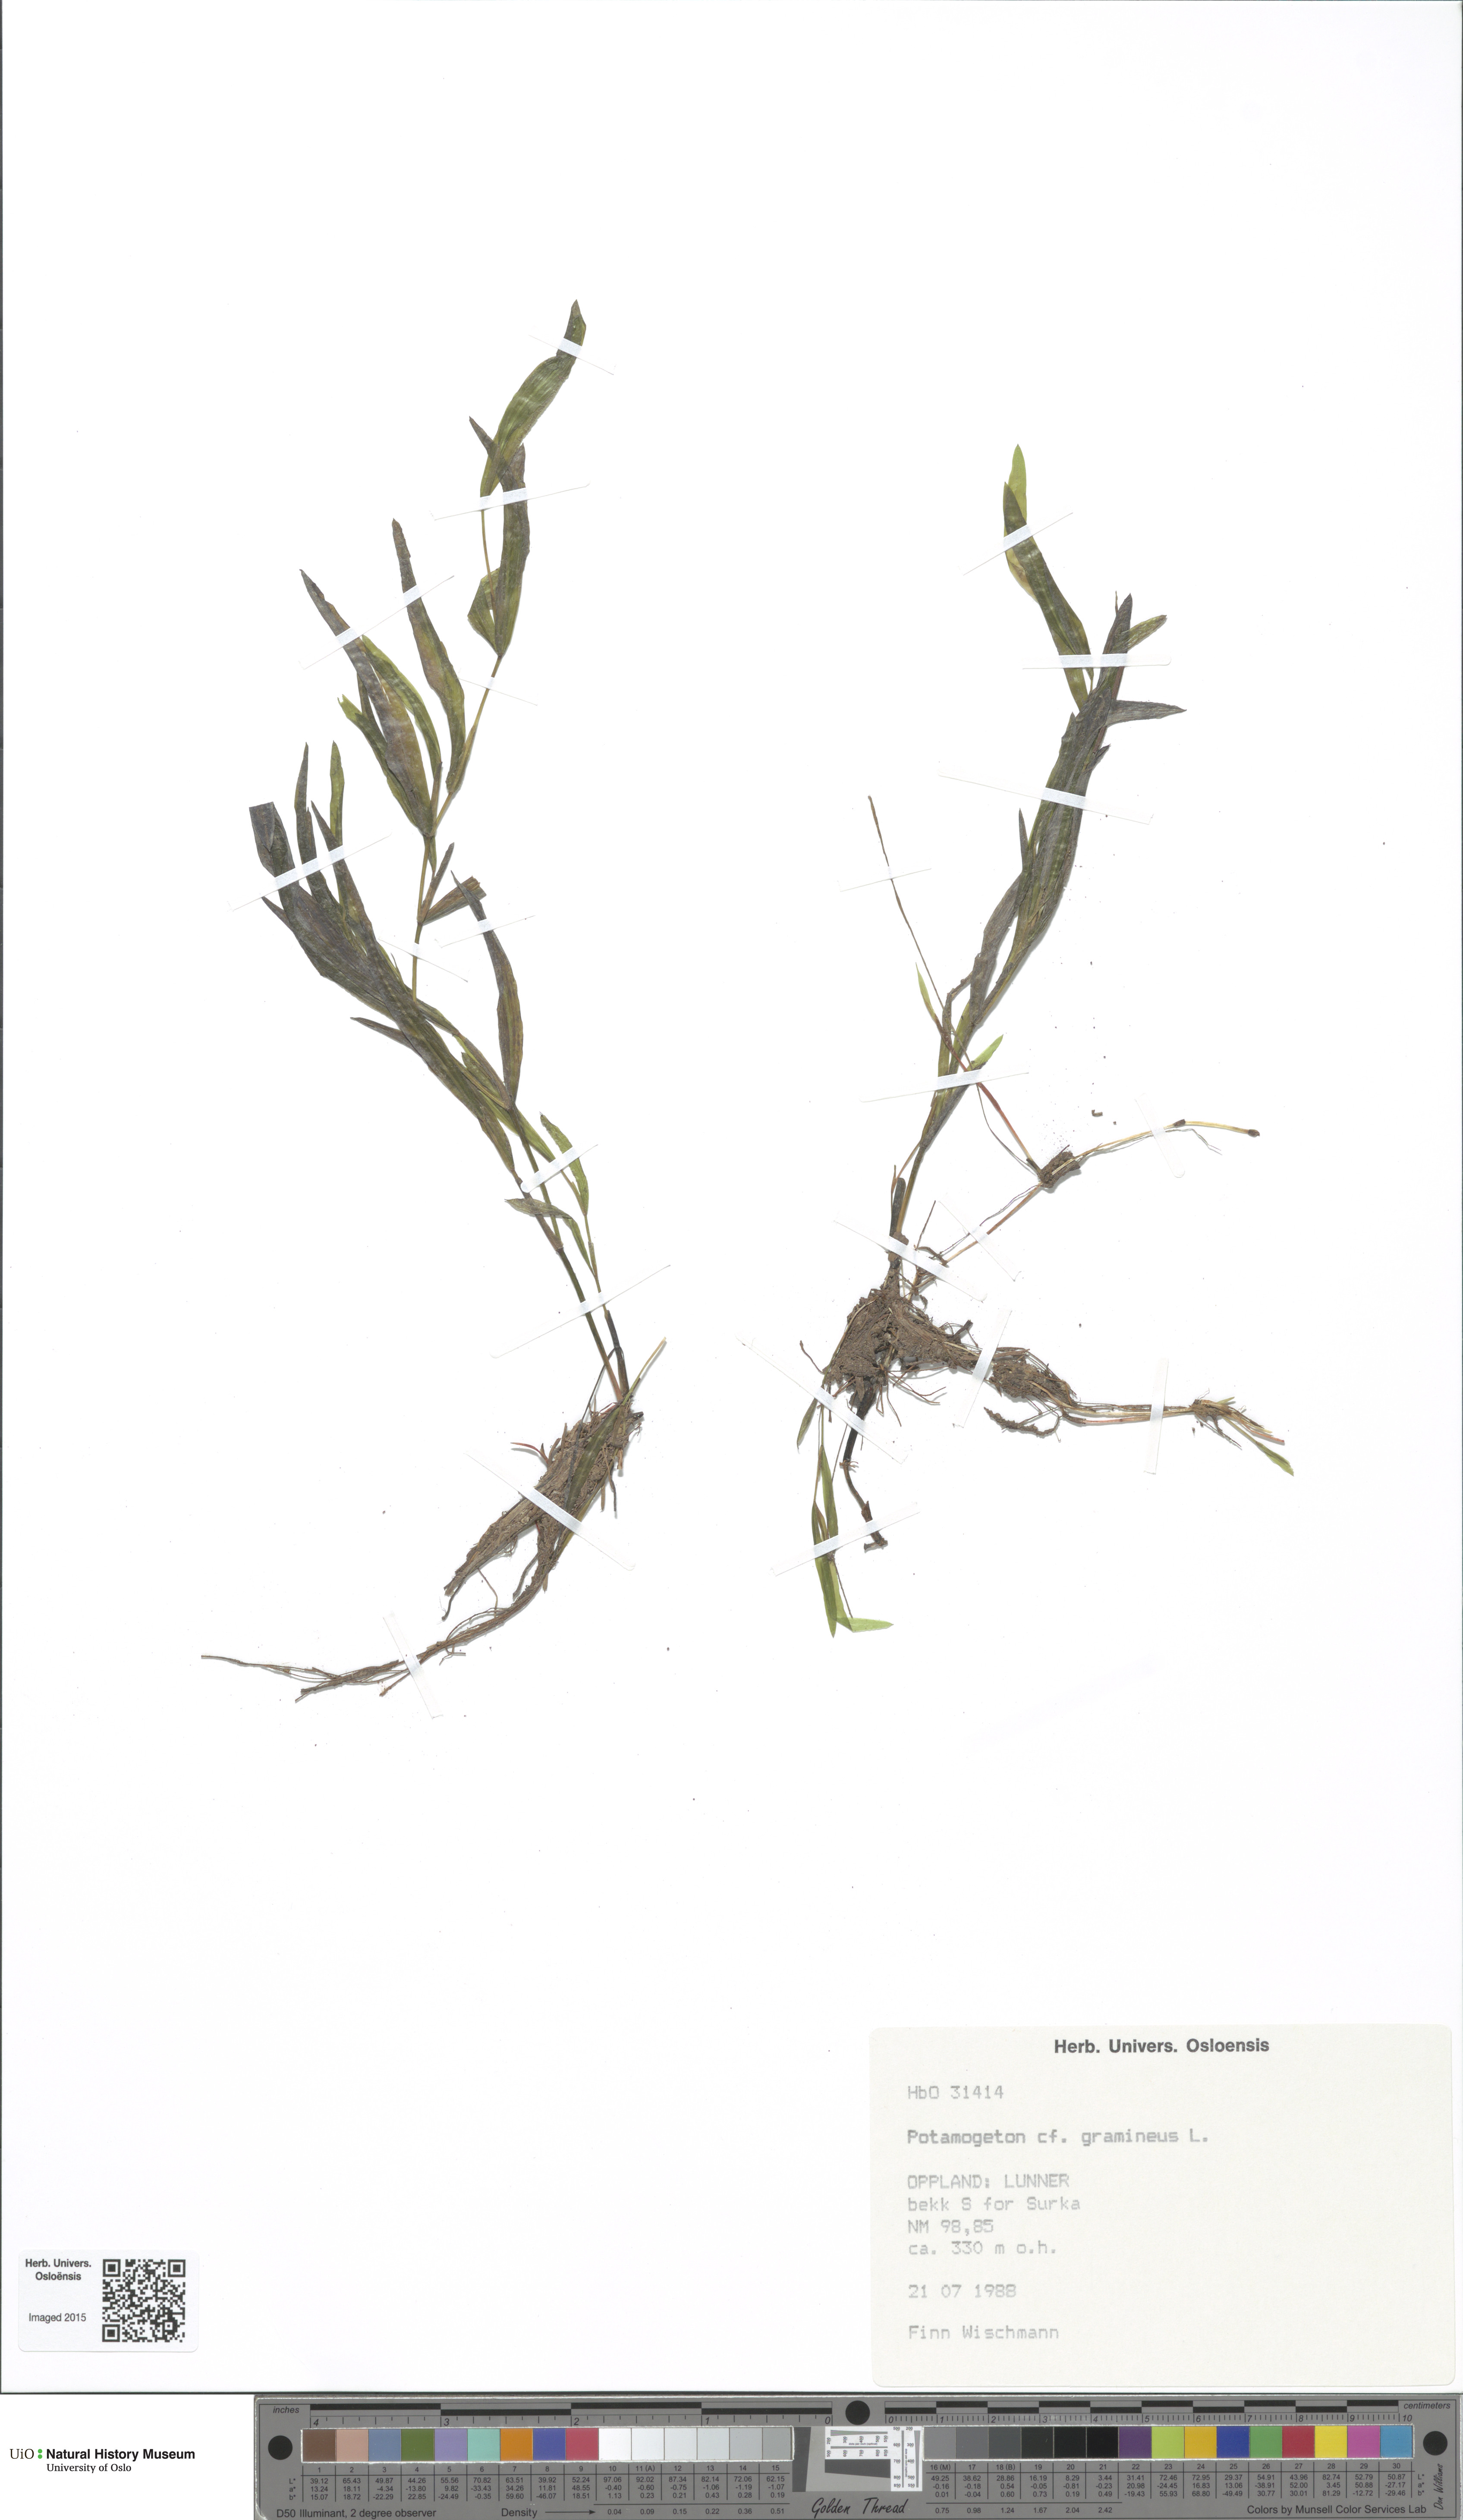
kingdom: Plantae
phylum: Tracheophyta
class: Liliopsida
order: Alismatales
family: Potamogetonaceae
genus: Potamogeton
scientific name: Potamogeton gramineus
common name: Various-leaved pondweed
